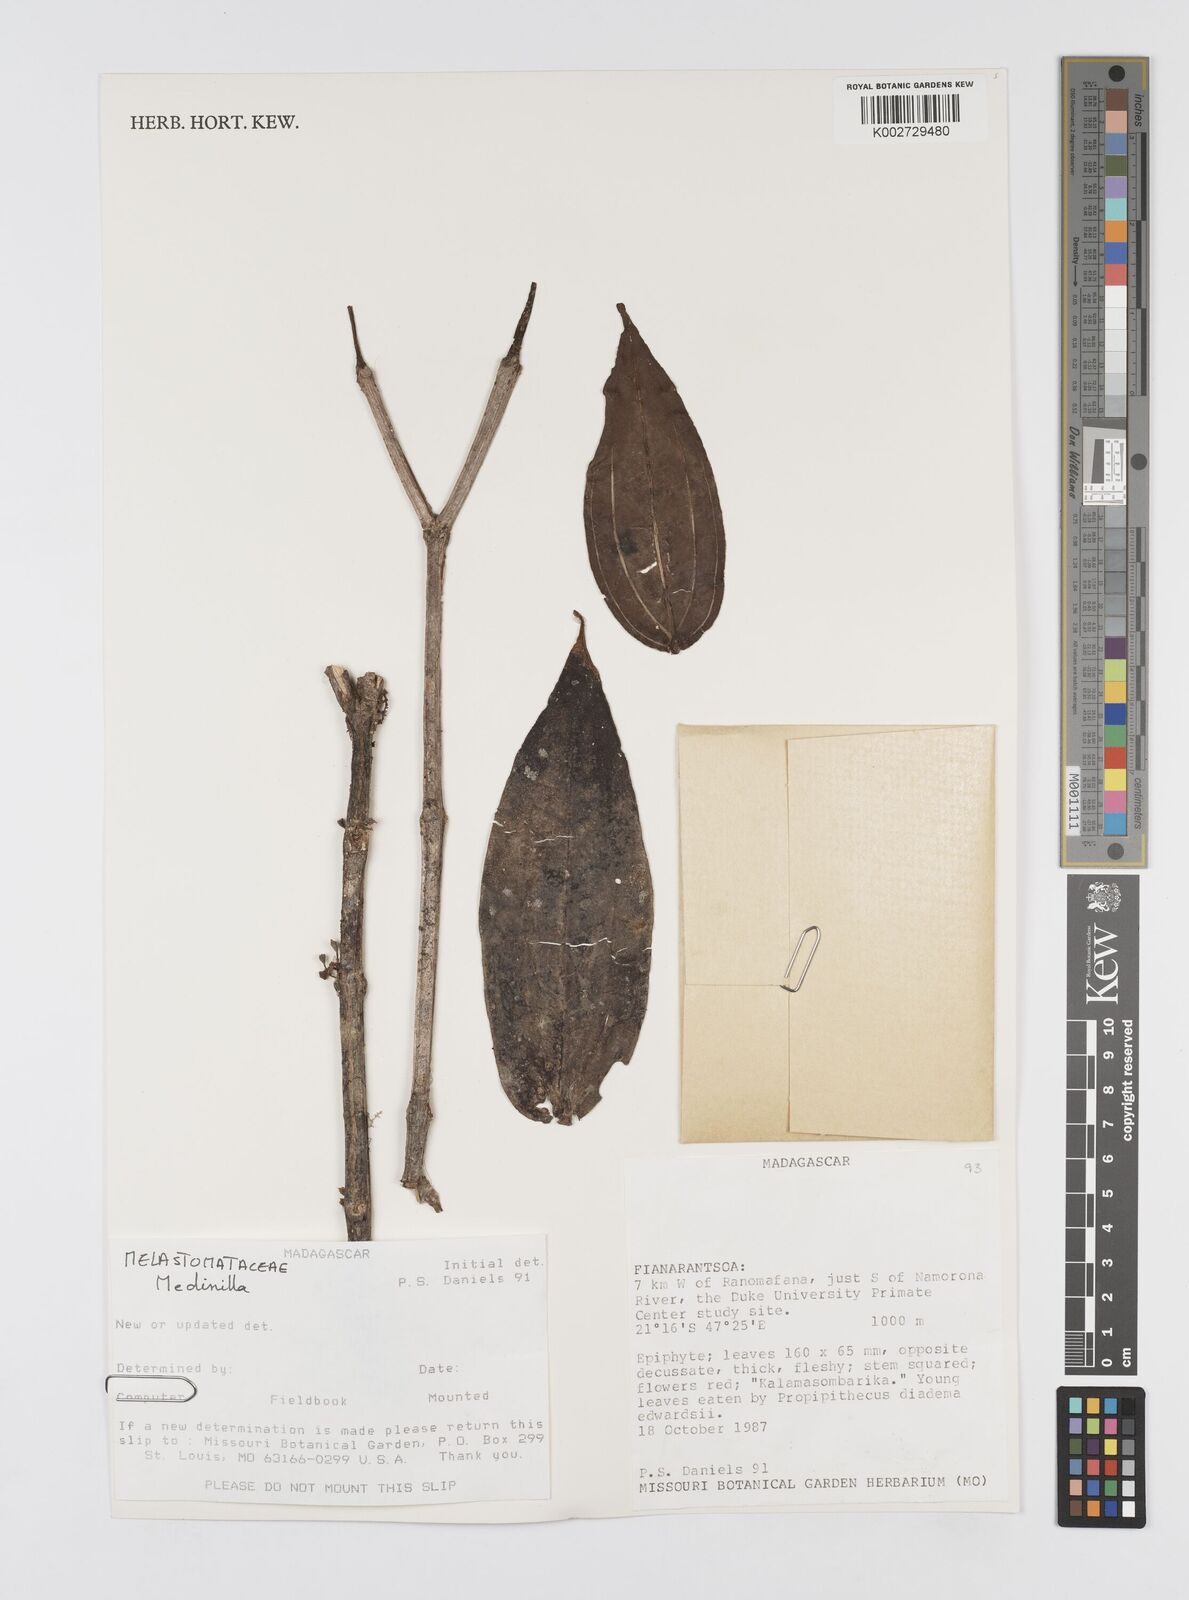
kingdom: Plantae
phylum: Tracheophyta
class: Magnoliopsida
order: Myrtales
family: Melastomataceae
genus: Medinilla
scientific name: Medinilla
